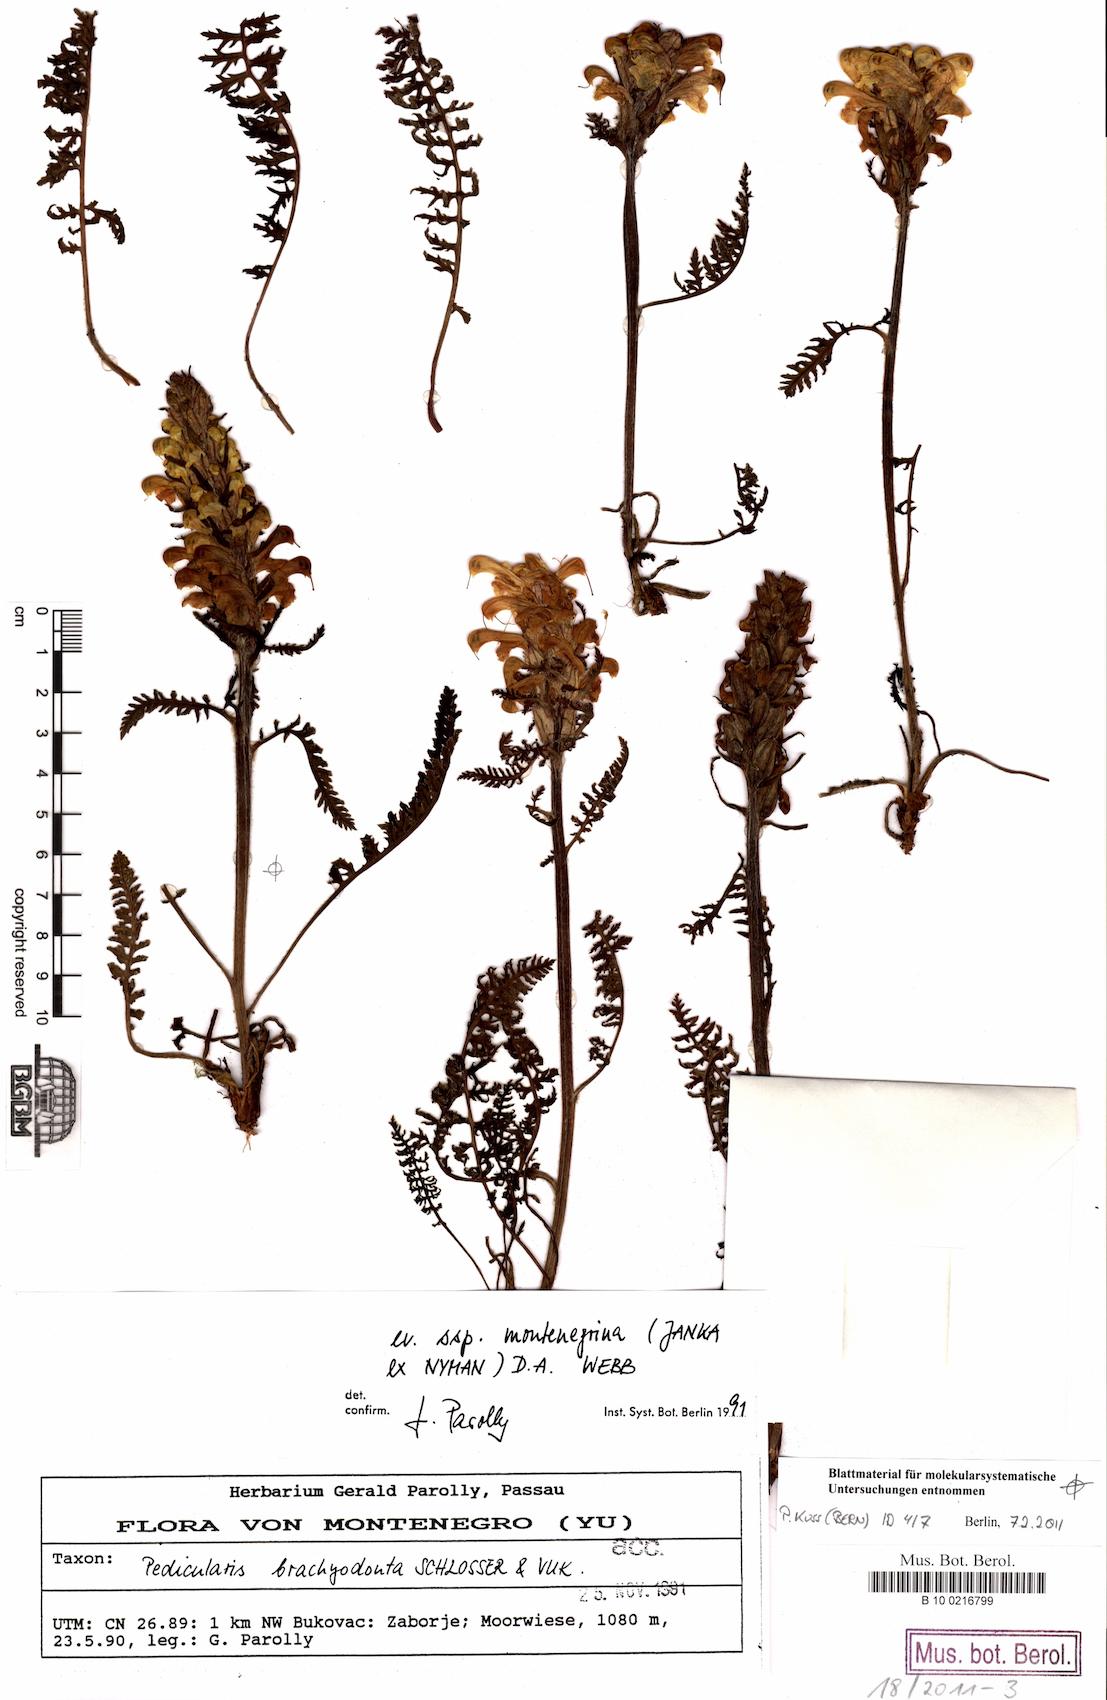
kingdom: Plantae
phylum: Tracheophyta
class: Magnoliopsida
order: Lamiales
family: Orobanchaceae
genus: Pedicularis
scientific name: Pedicularis brachyodonta
